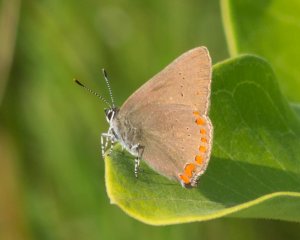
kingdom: Animalia
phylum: Arthropoda
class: Insecta
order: Lepidoptera
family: Lycaenidae
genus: Harkenclenus
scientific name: Harkenclenus titus
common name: Coral Hairstreak
